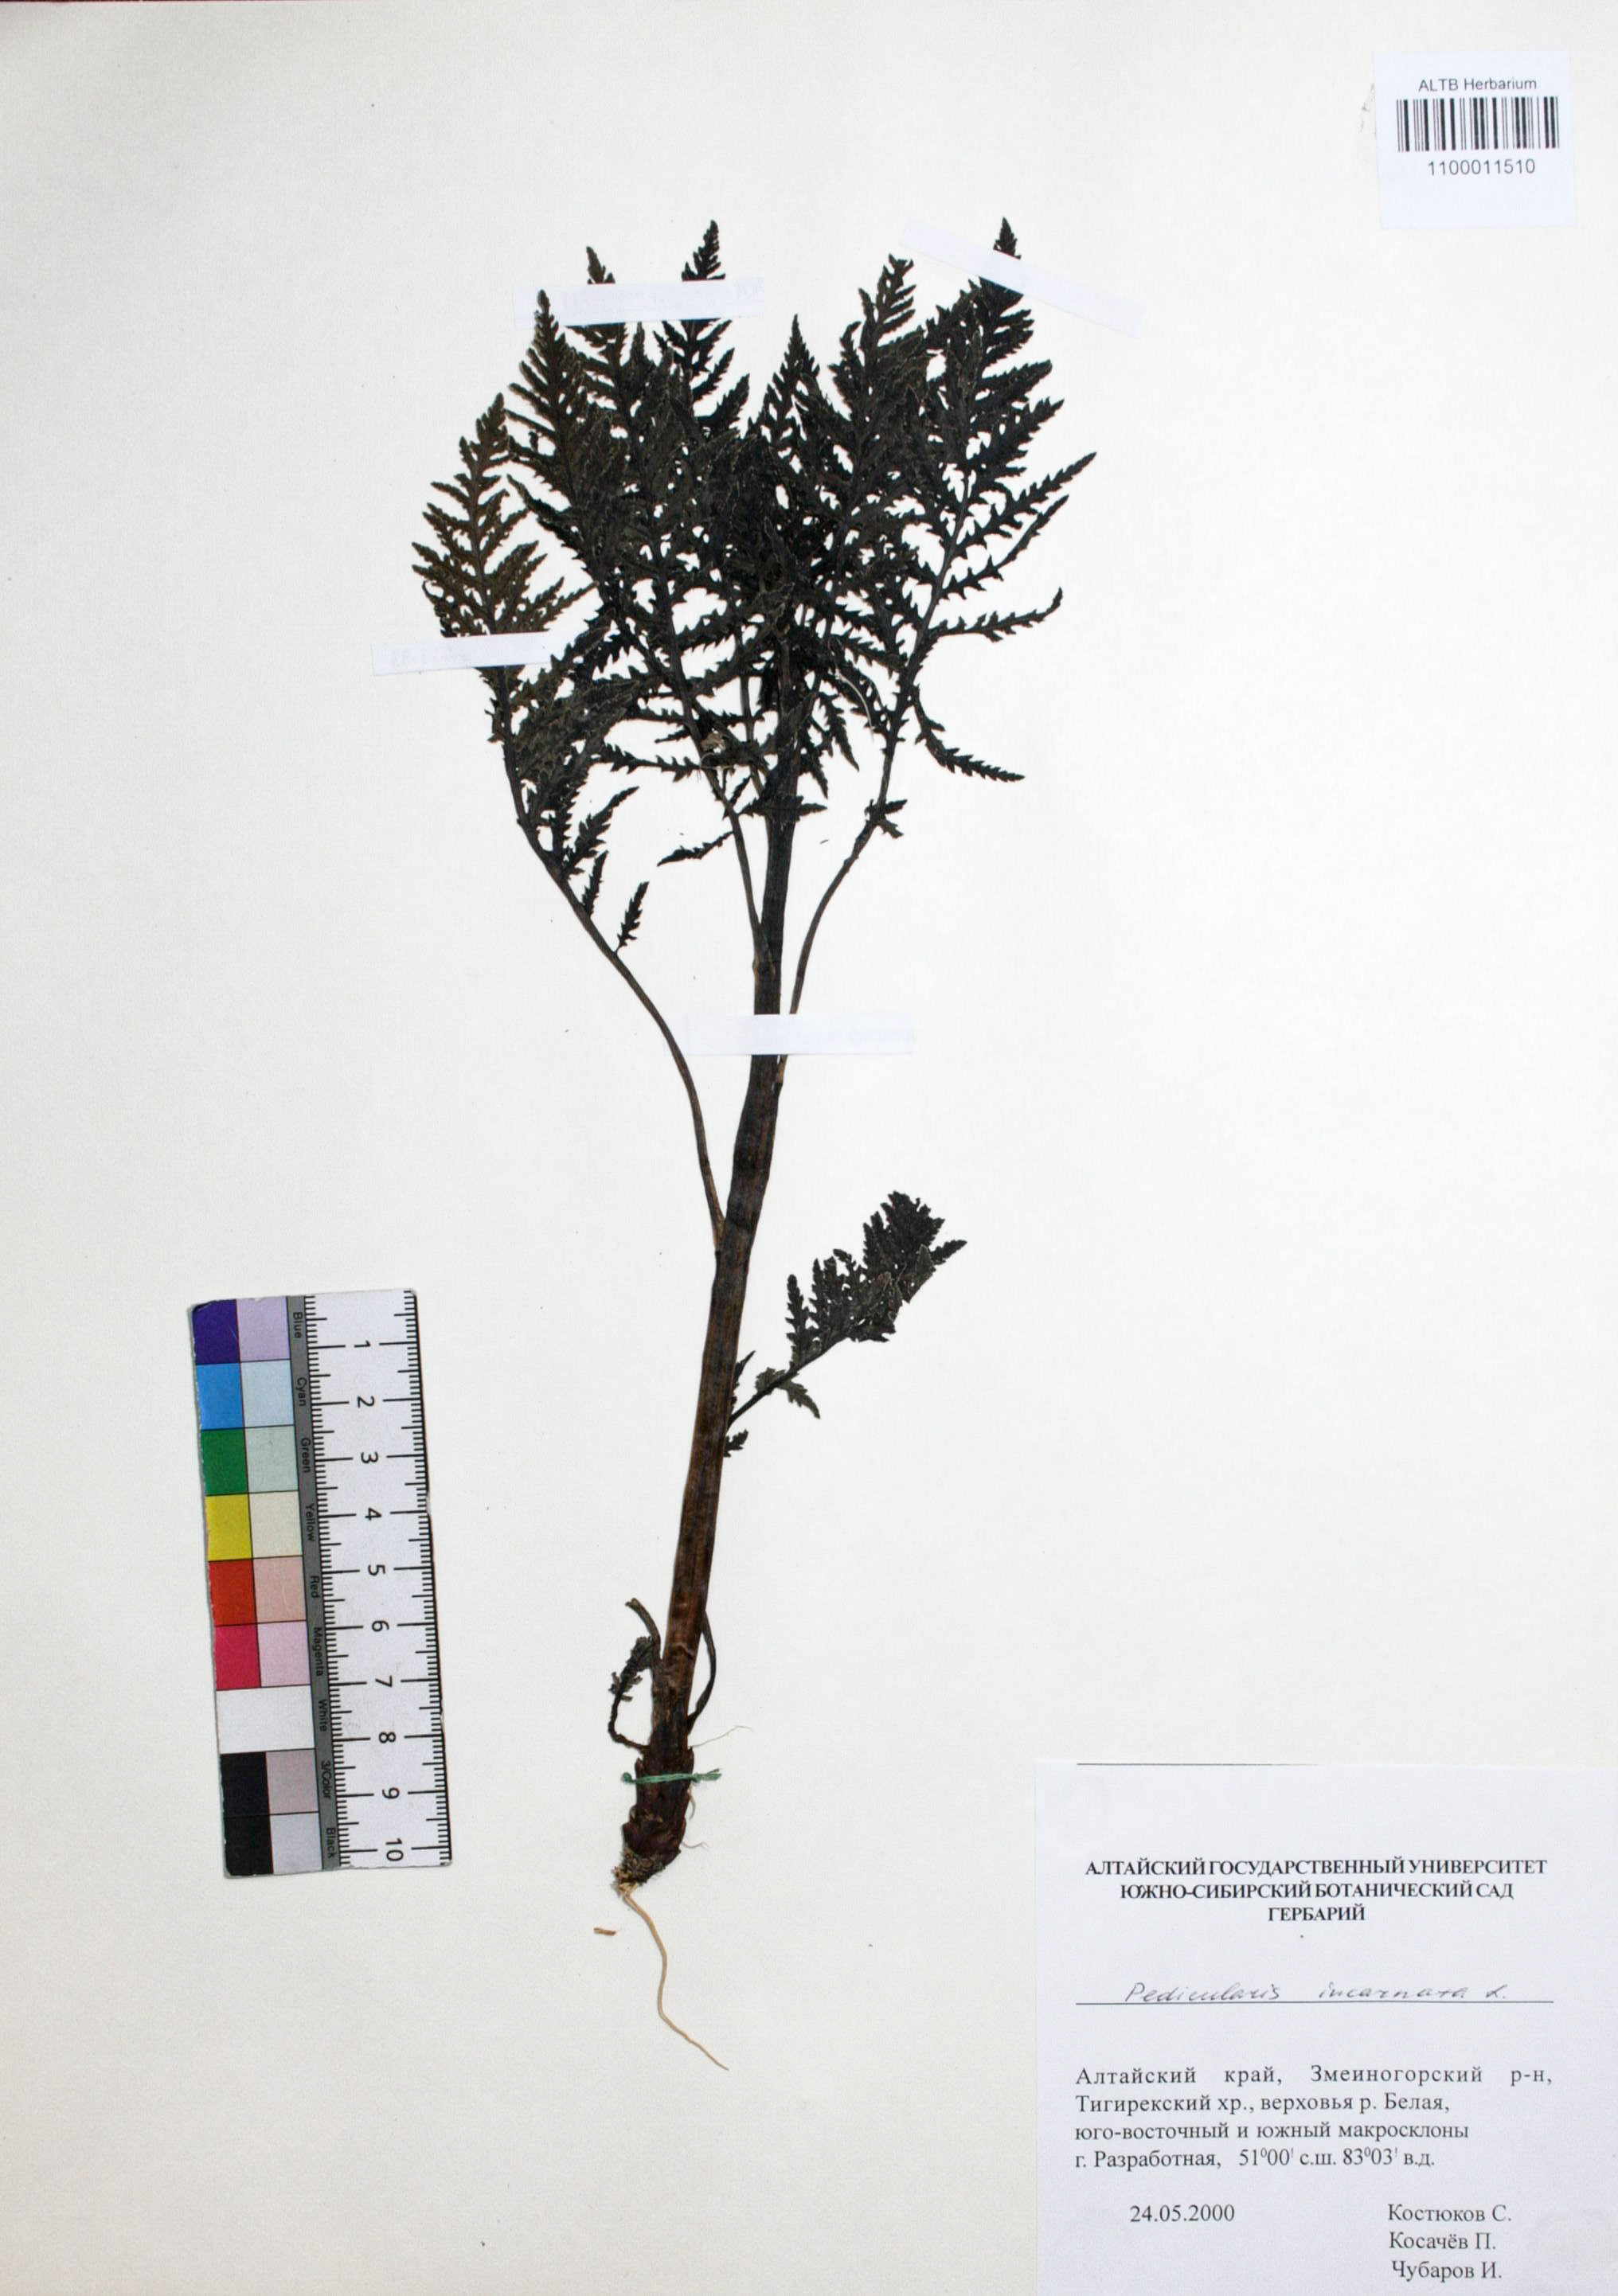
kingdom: Plantae
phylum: Tracheophyta
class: Magnoliopsida
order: Lamiales
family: Orobanchaceae
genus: Pedicularis
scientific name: Pedicularis incarnata
